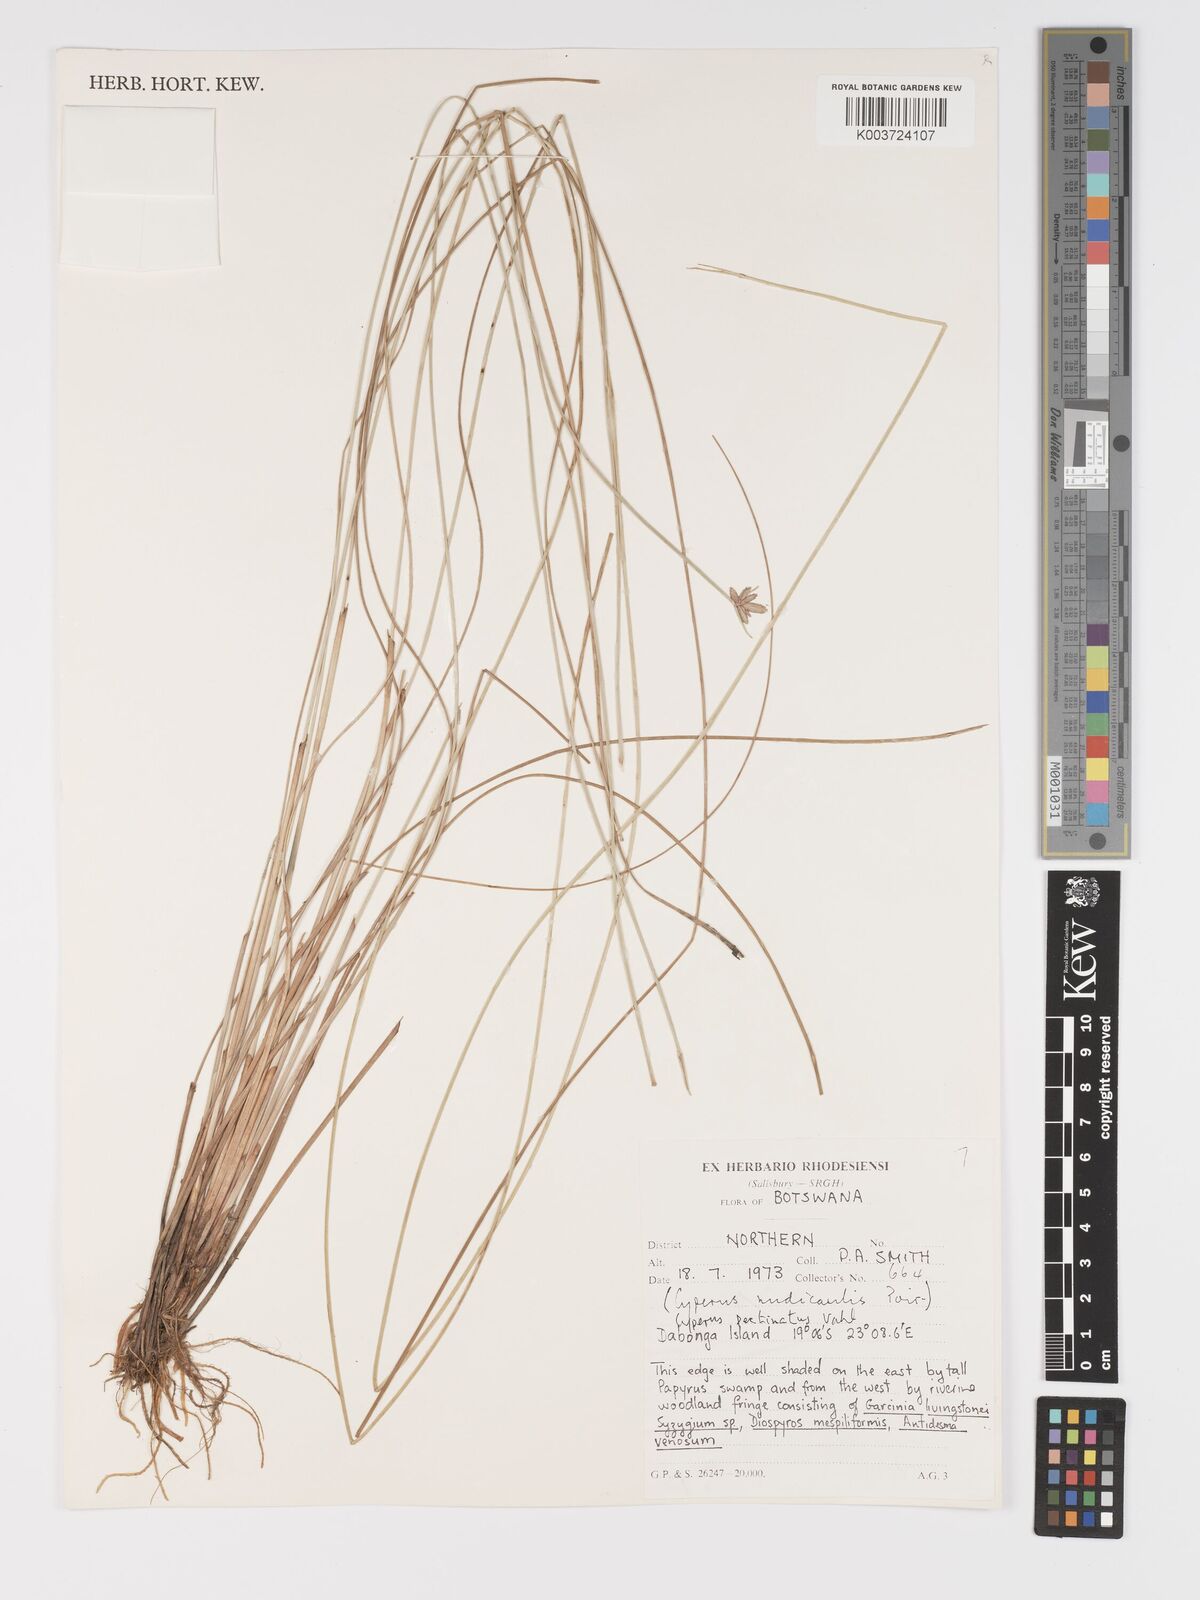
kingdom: Plantae
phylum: Tracheophyta
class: Liliopsida
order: Poales
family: Cyperaceae
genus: Cyperus
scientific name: Cyperus compressus
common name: Poorland flatsedge
